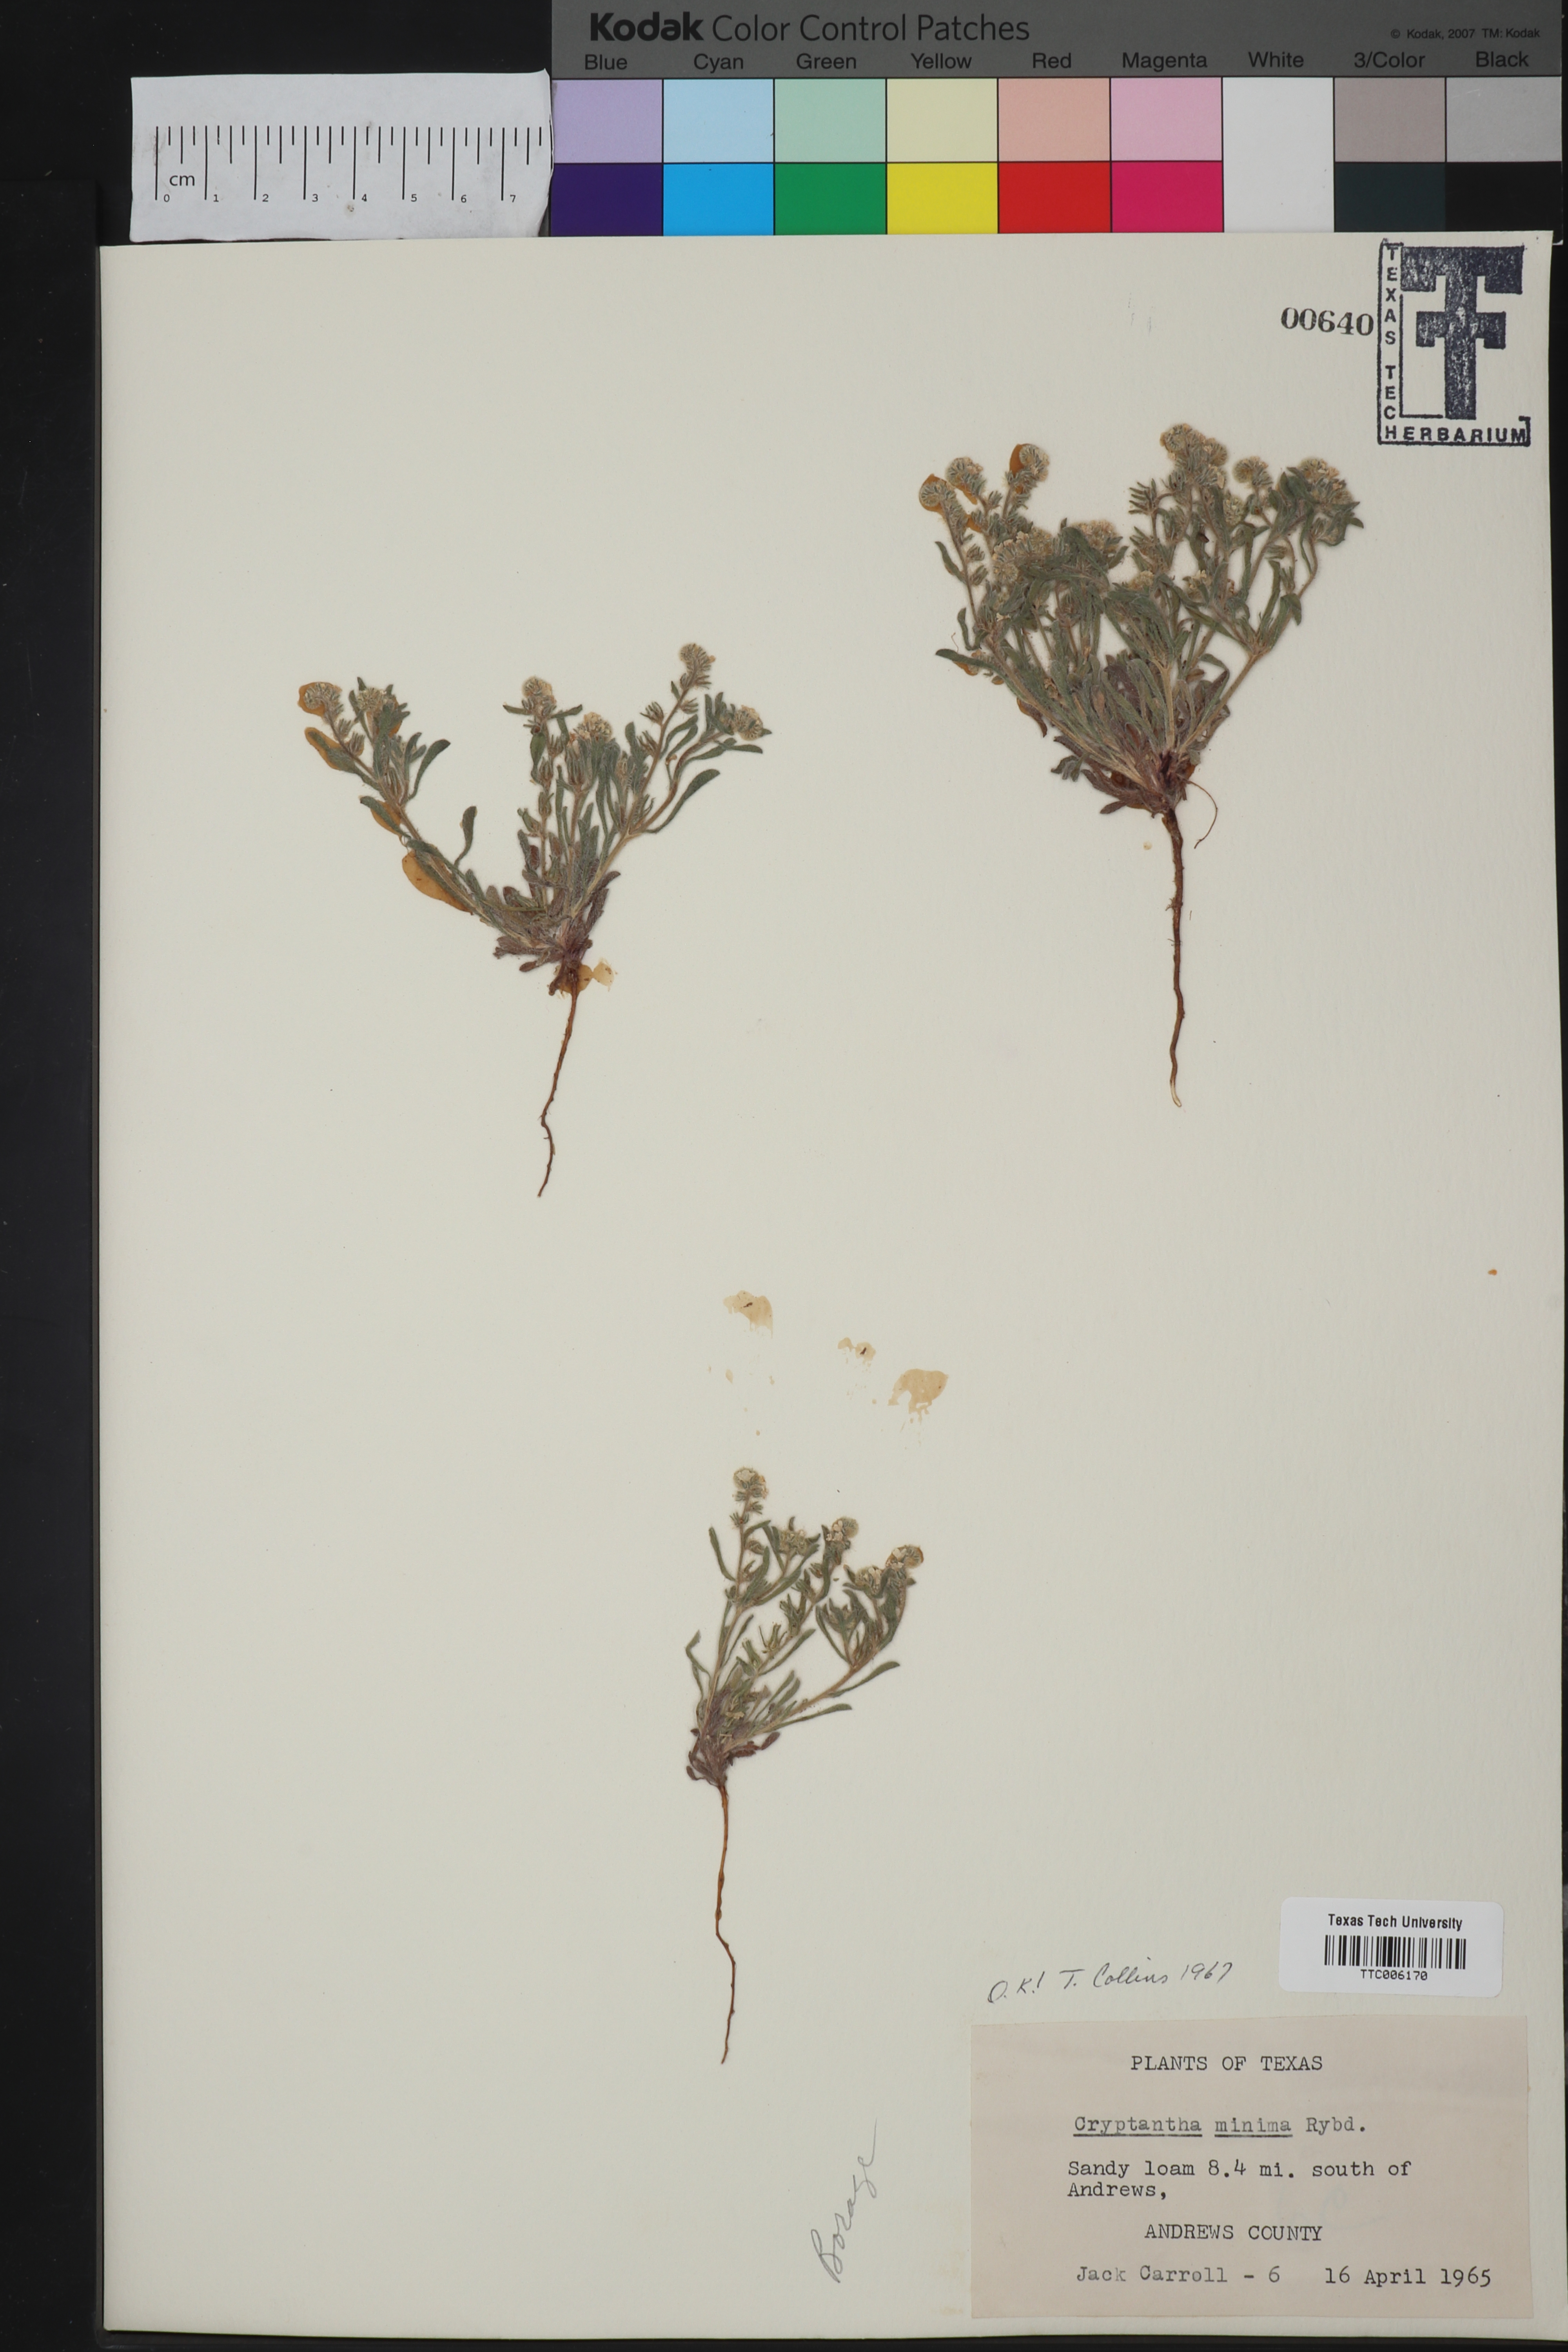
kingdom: Plantae
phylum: Tracheophyta
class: Magnoliopsida
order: Boraginales
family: Boraginaceae
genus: Cryptantha
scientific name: Cryptantha minima
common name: Little cat's-eye
